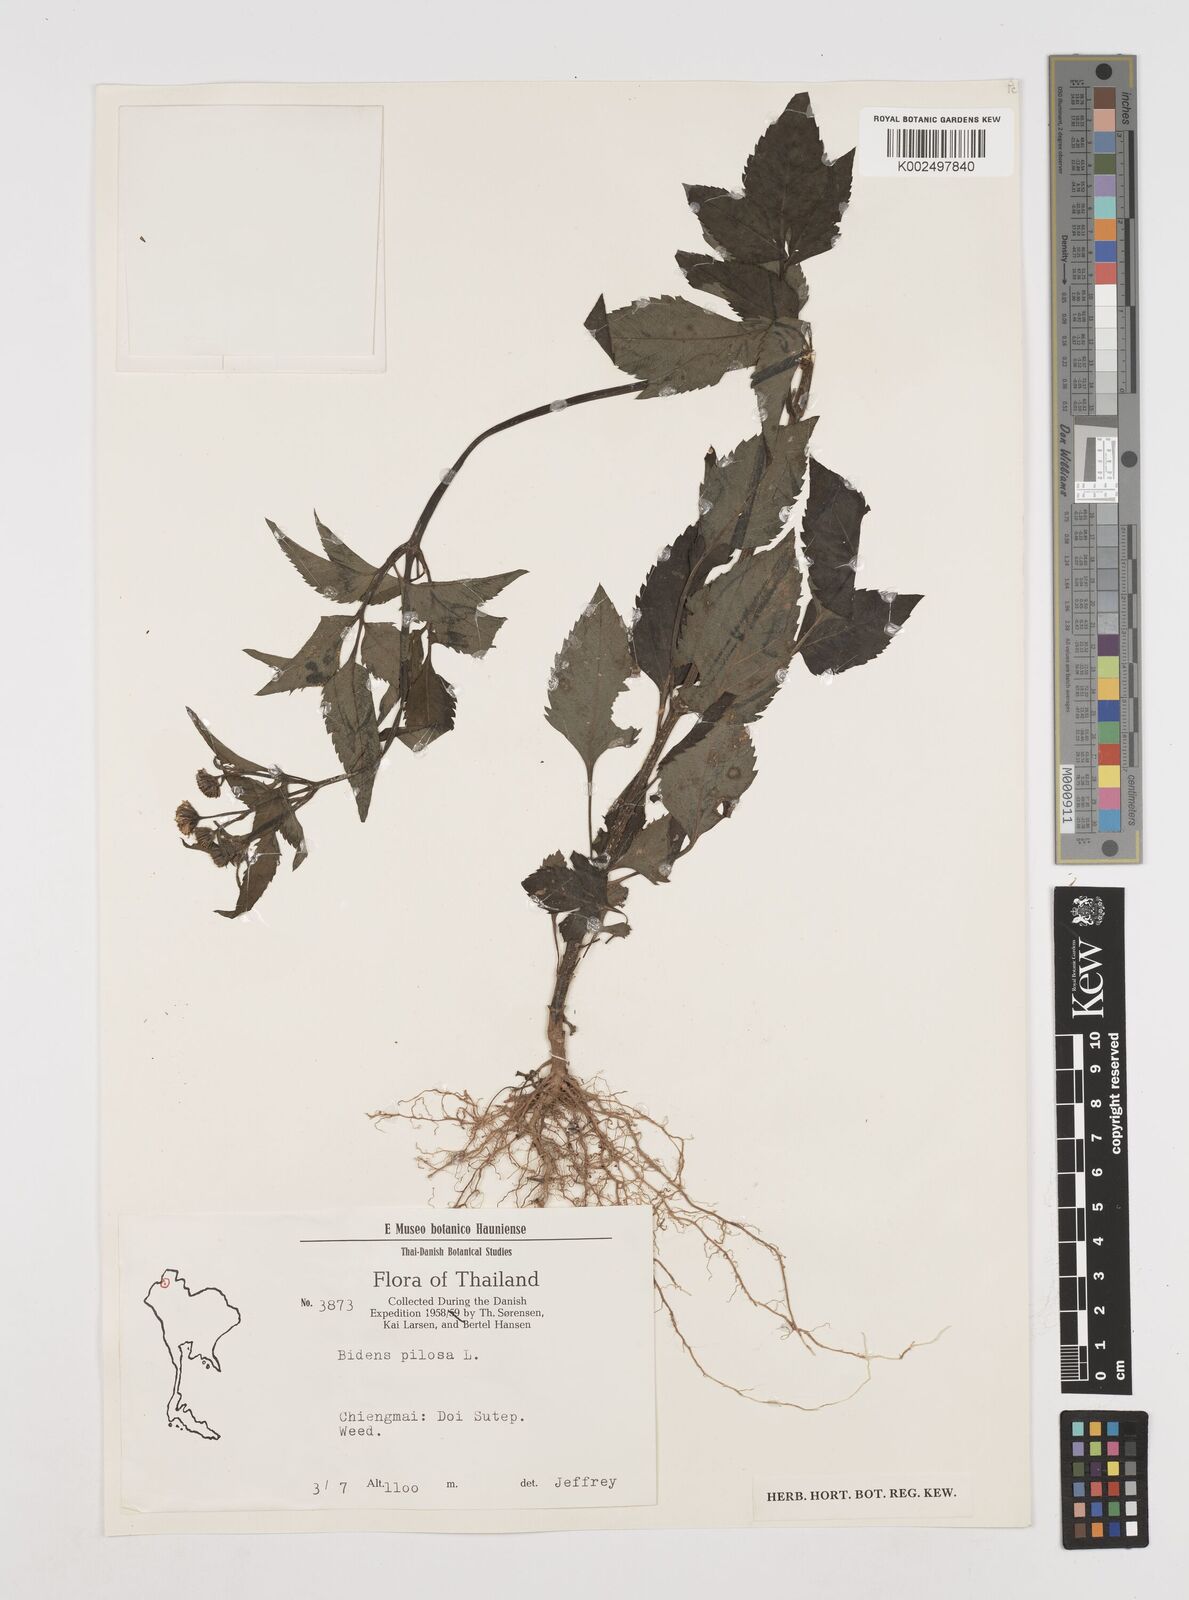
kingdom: Plantae
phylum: Tracheophyta
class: Magnoliopsida
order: Asterales
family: Asteraceae
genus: Bidens
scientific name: Bidens
